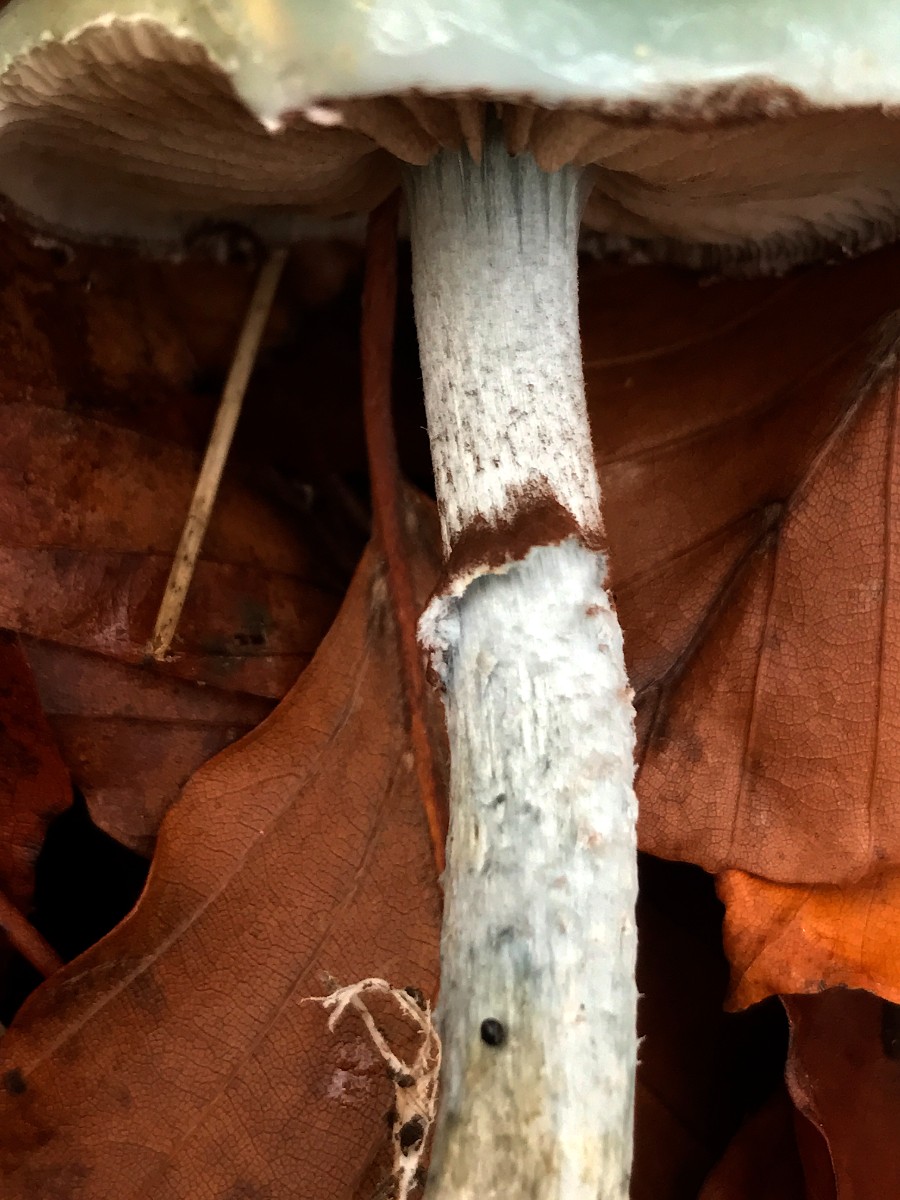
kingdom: Fungi
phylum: Basidiomycota
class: Agaricomycetes
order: Agaricales
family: Strophariaceae
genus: Stropharia
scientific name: Stropharia cyanea
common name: blågrøn bredblad
